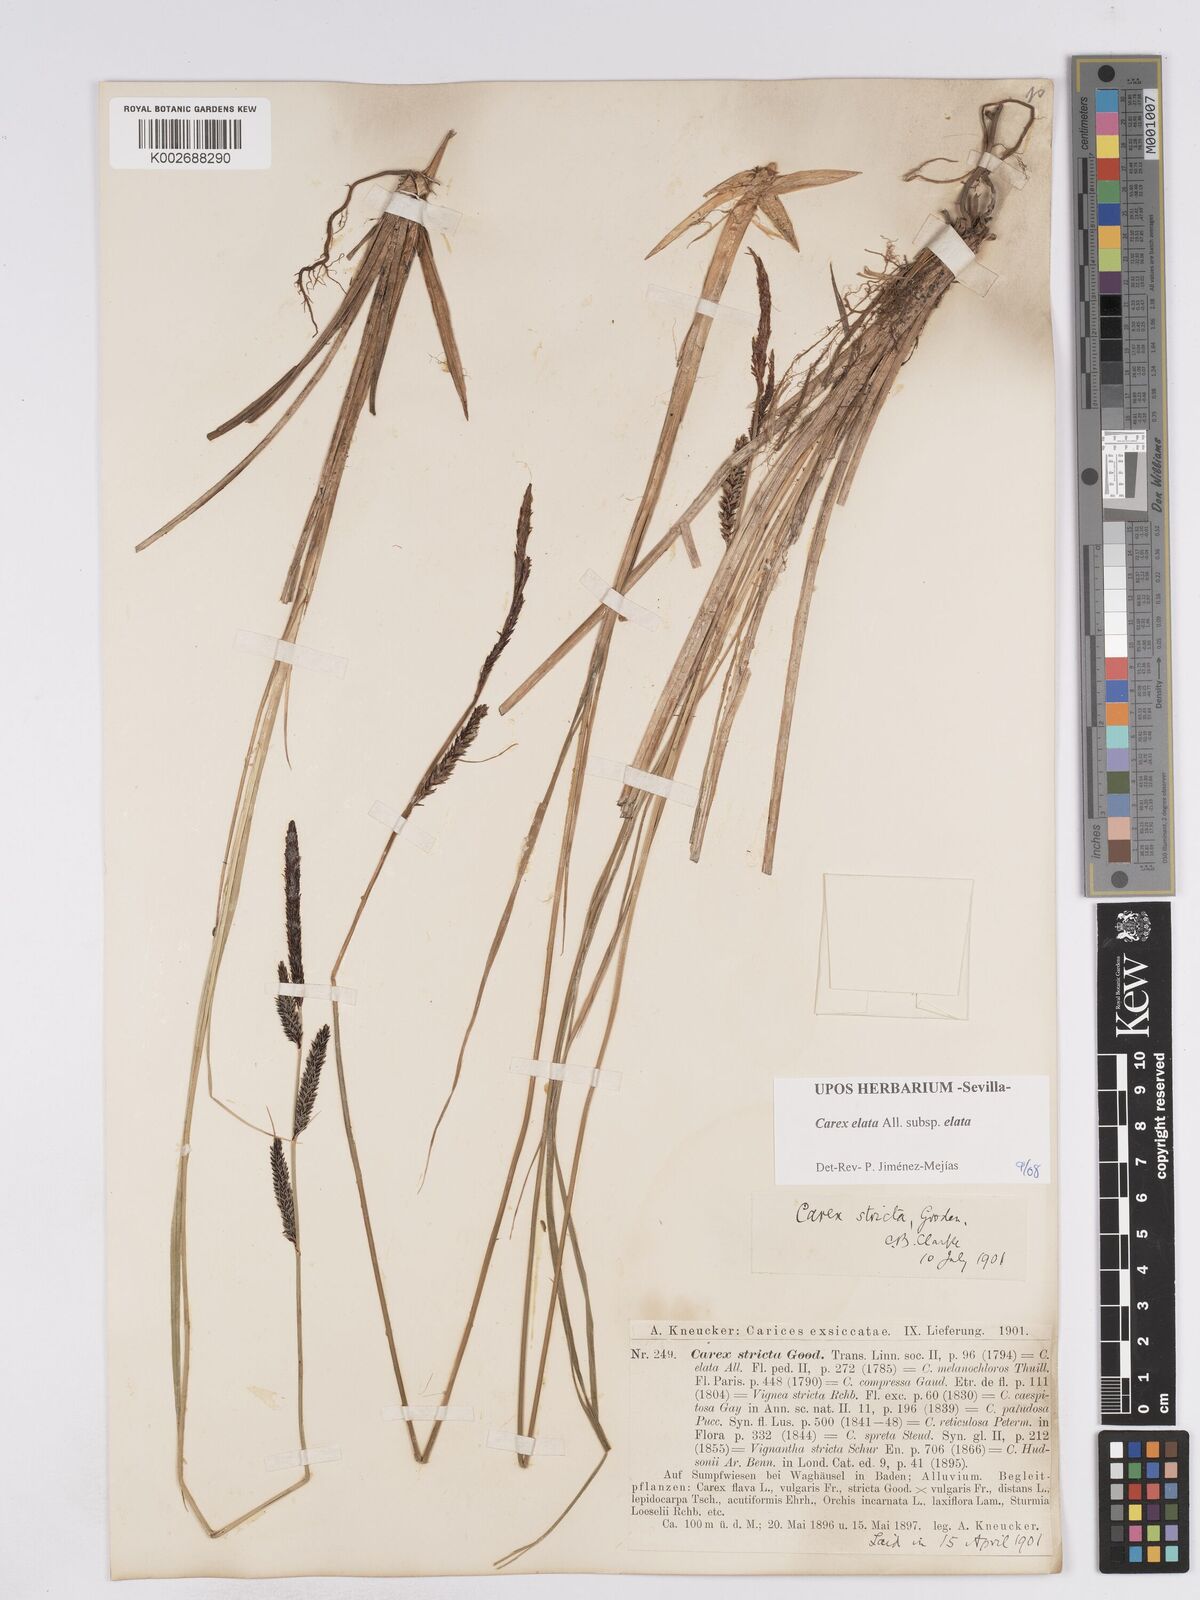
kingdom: Plantae
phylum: Tracheophyta
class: Liliopsida
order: Poales
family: Cyperaceae
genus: Carex
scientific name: Carex elata
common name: Tufted sedge
